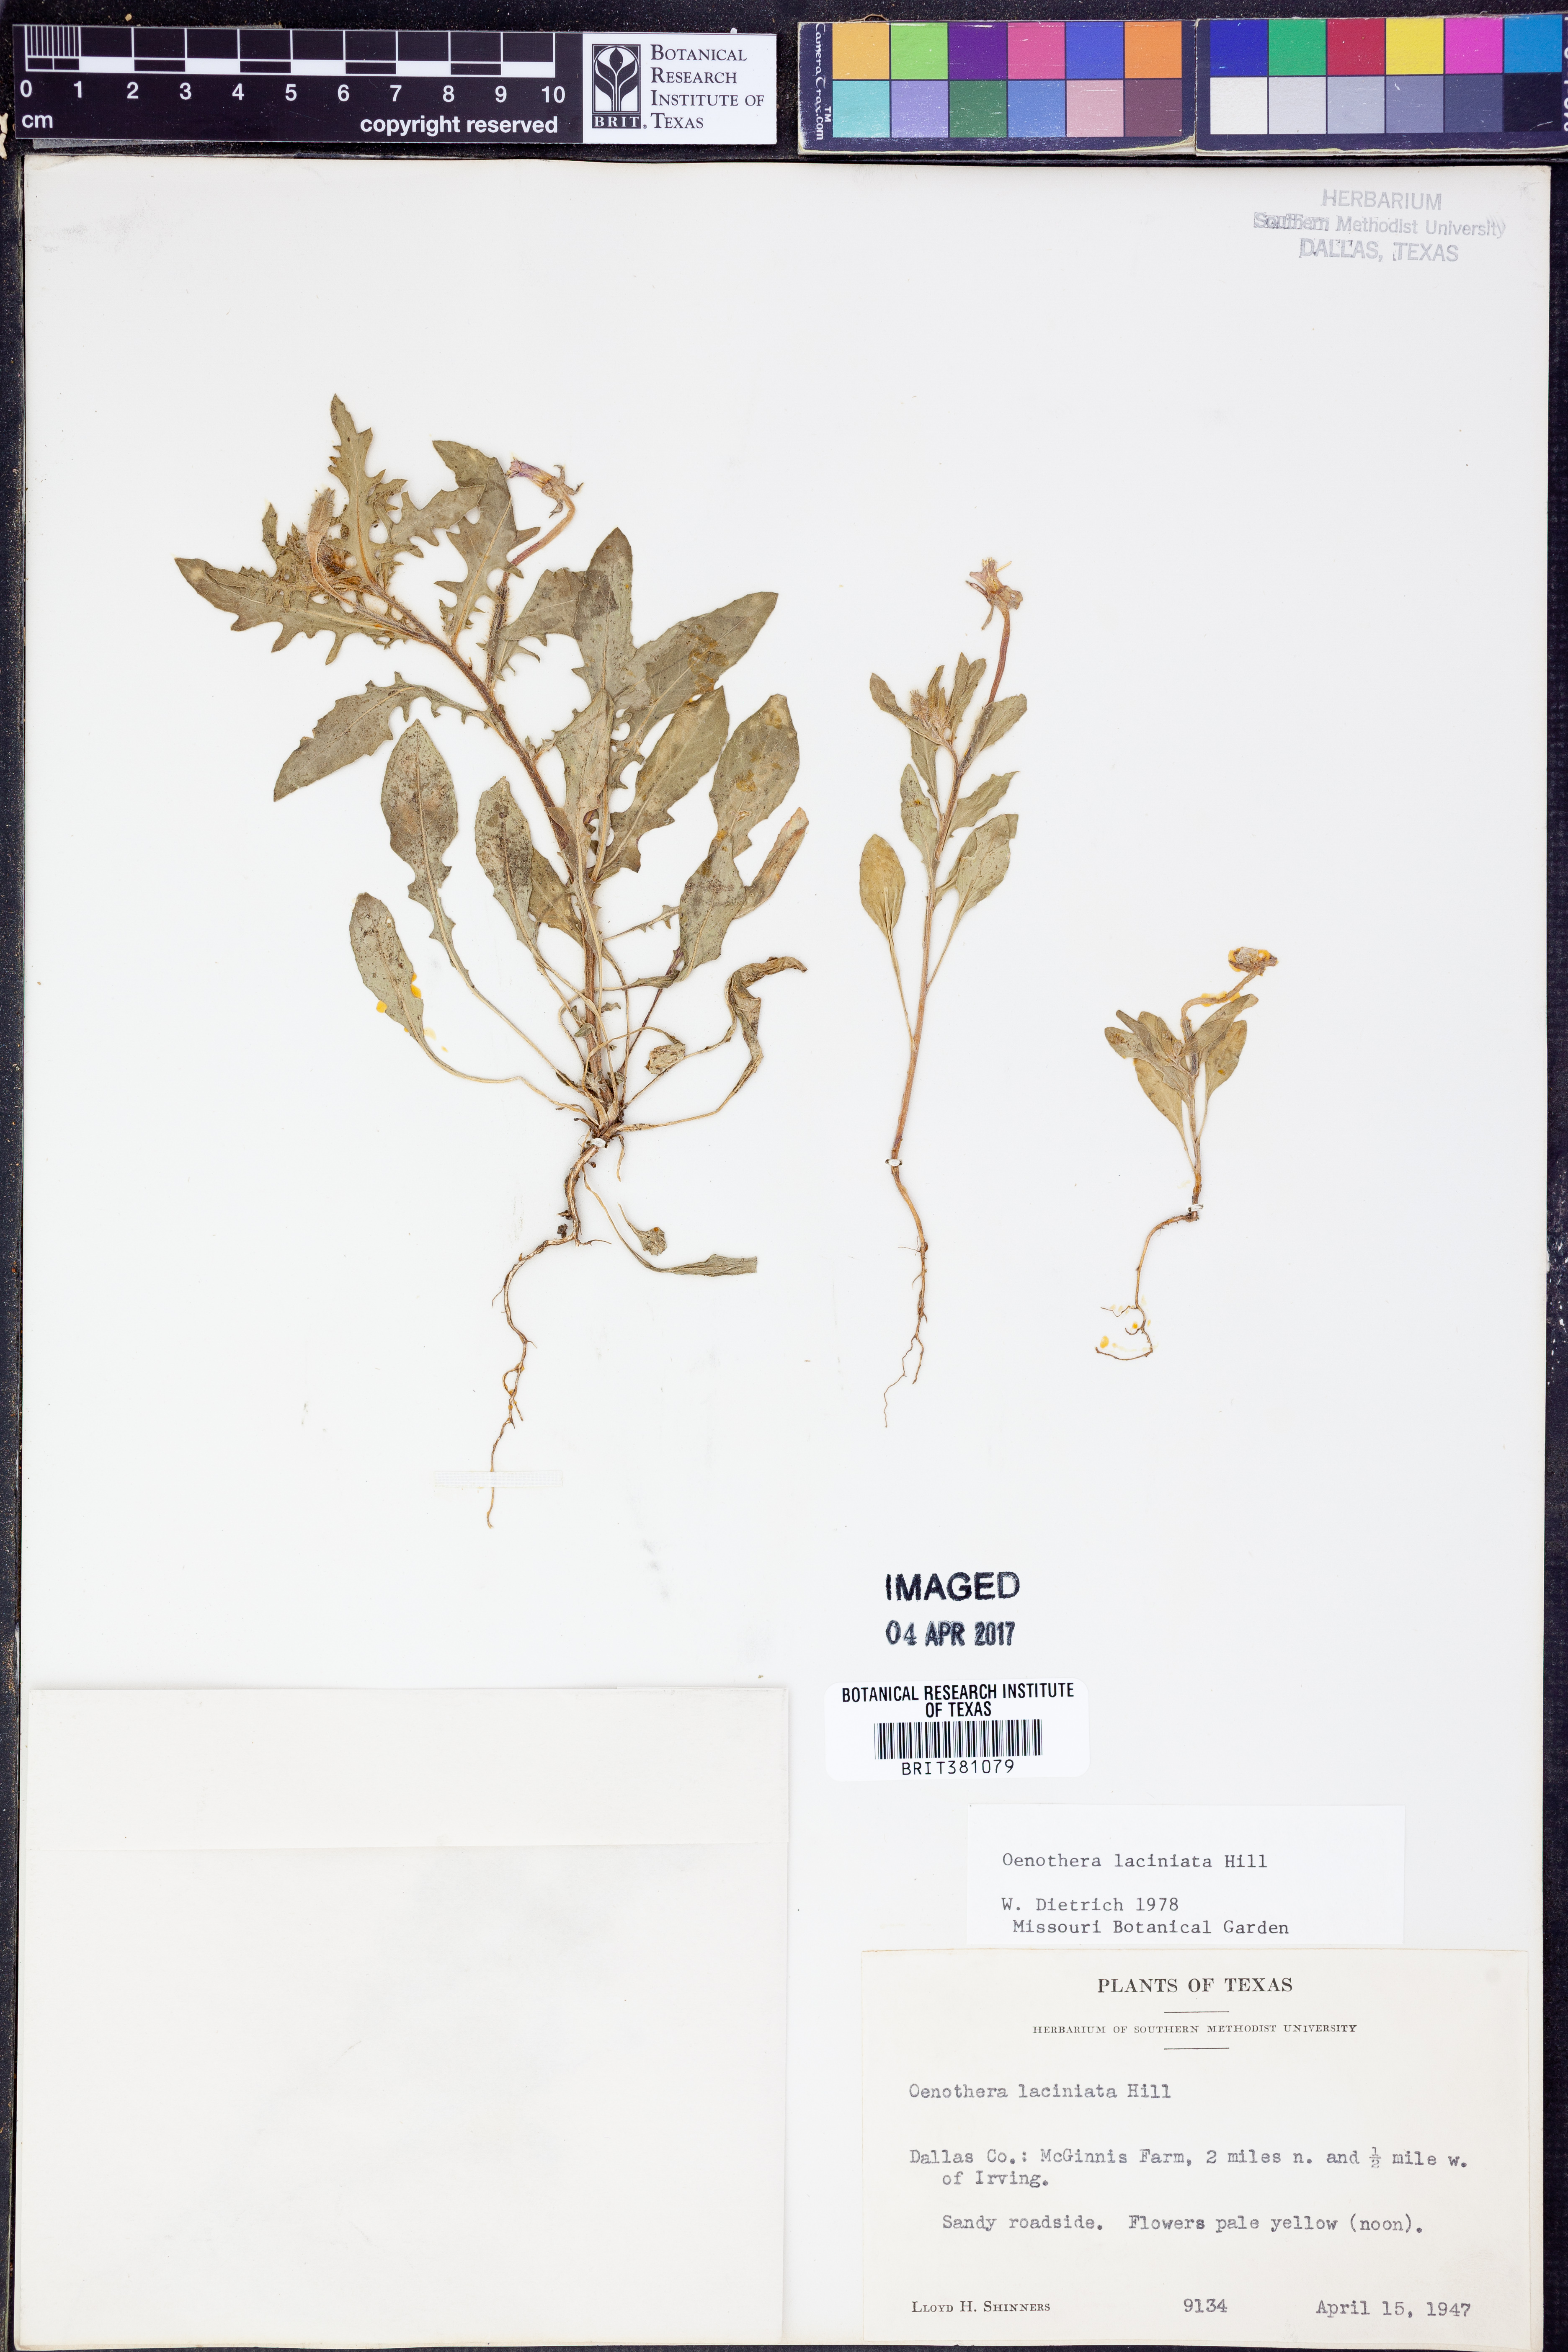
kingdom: Plantae
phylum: Tracheophyta
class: Magnoliopsida
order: Myrtales
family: Onagraceae
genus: Oenothera
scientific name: Oenothera laciniata
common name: Cut-leaved evening-primrose
